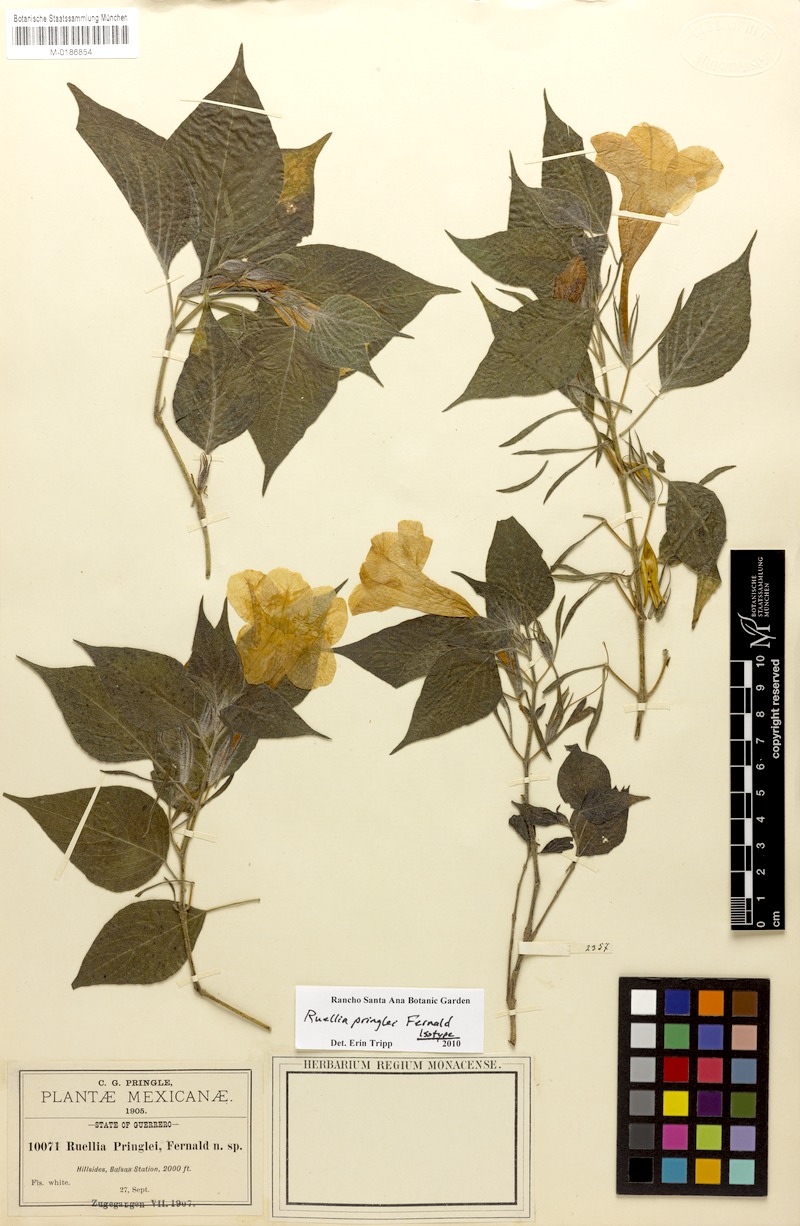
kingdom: Plantae
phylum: Tracheophyta
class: Magnoliopsida
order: Lamiales
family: Acanthaceae
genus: Ruellia
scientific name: Ruellia pringlei
